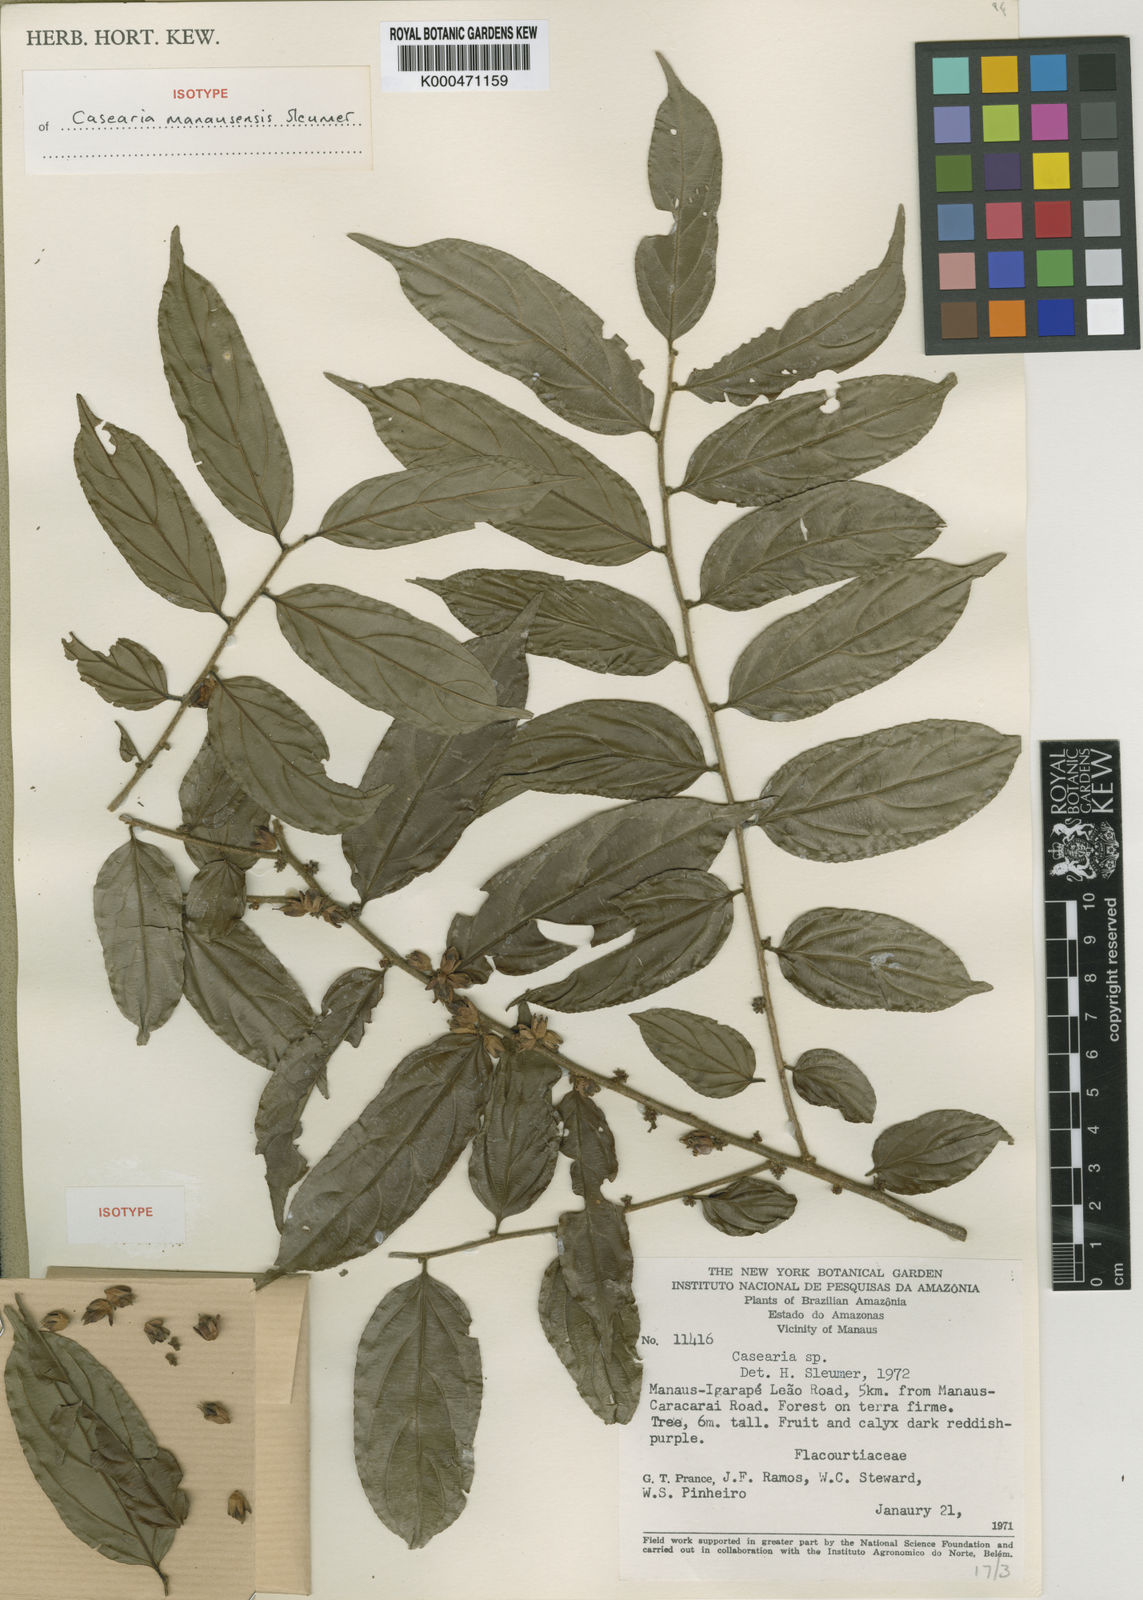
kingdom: Plantae
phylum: Tracheophyta
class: Magnoliopsida
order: Malpighiales
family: Salicaceae
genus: Casearia
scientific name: Casearia manausensis
